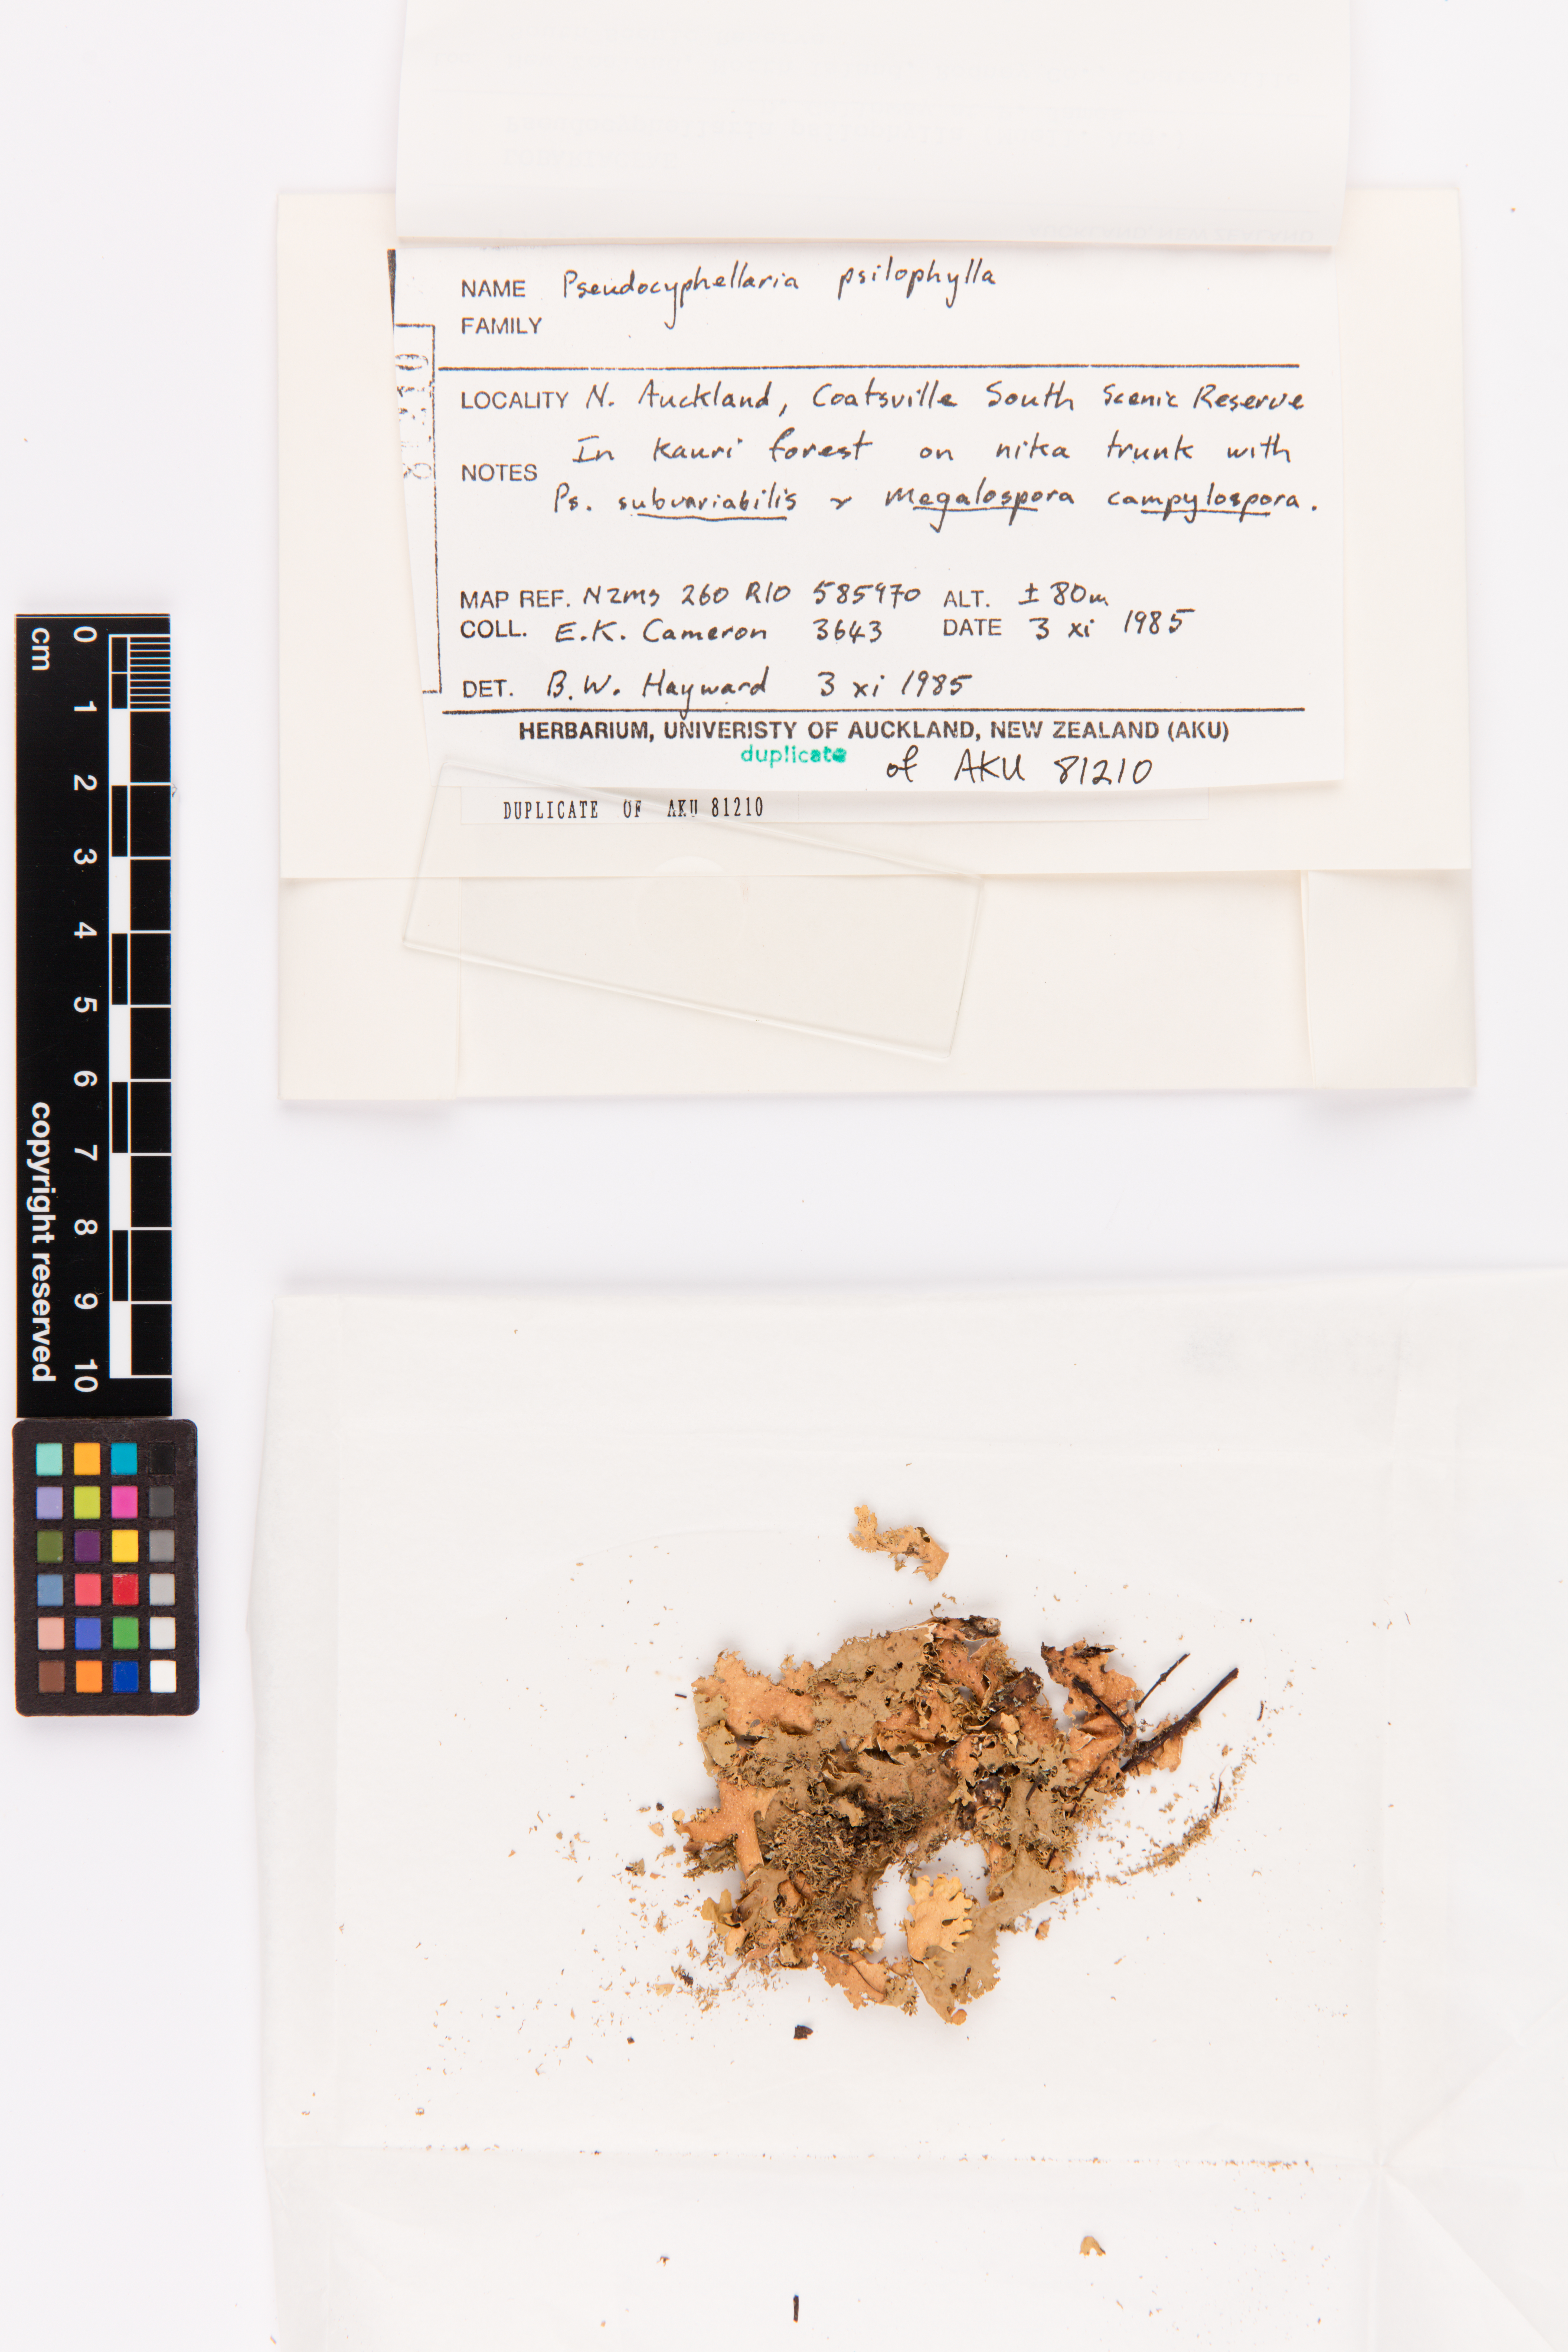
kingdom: Fungi
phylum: Ascomycota
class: Lecanoromycetes
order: Peltigerales
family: Lobariaceae
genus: Pseudocyphellaria
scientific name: Pseudocyphellaria chloroleuca
